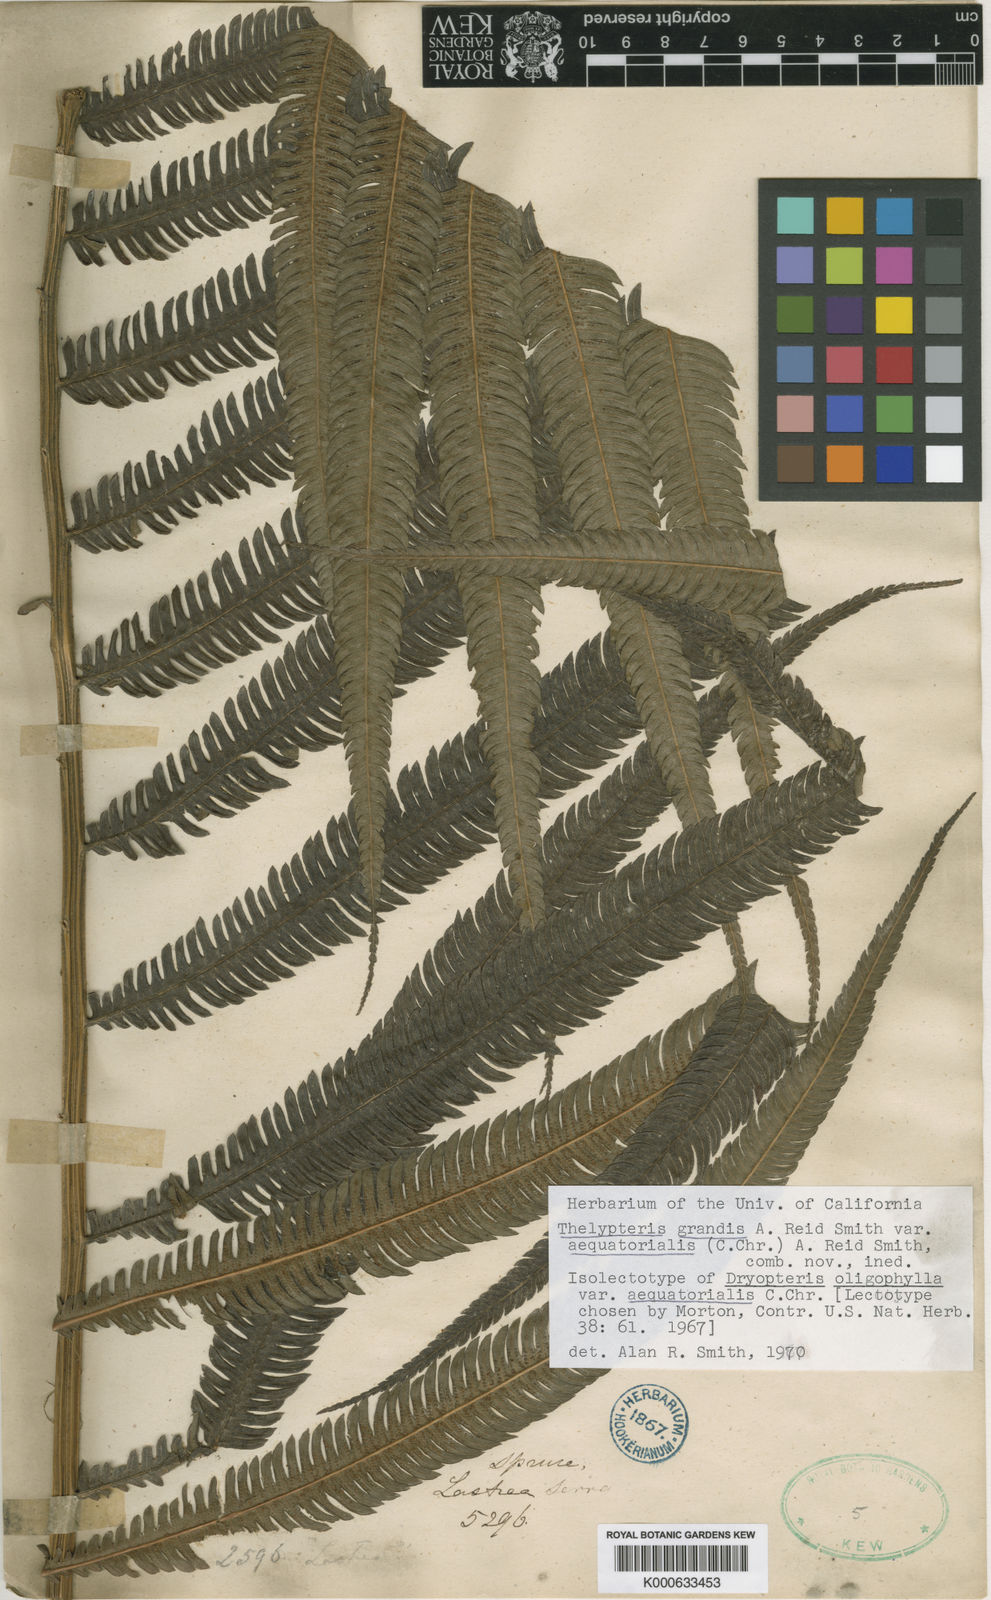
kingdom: Plantae
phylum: Tracheophyta
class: Polypodiopsida
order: Polypodiales
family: Thelypteridaceae
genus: Christella
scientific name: Christella
